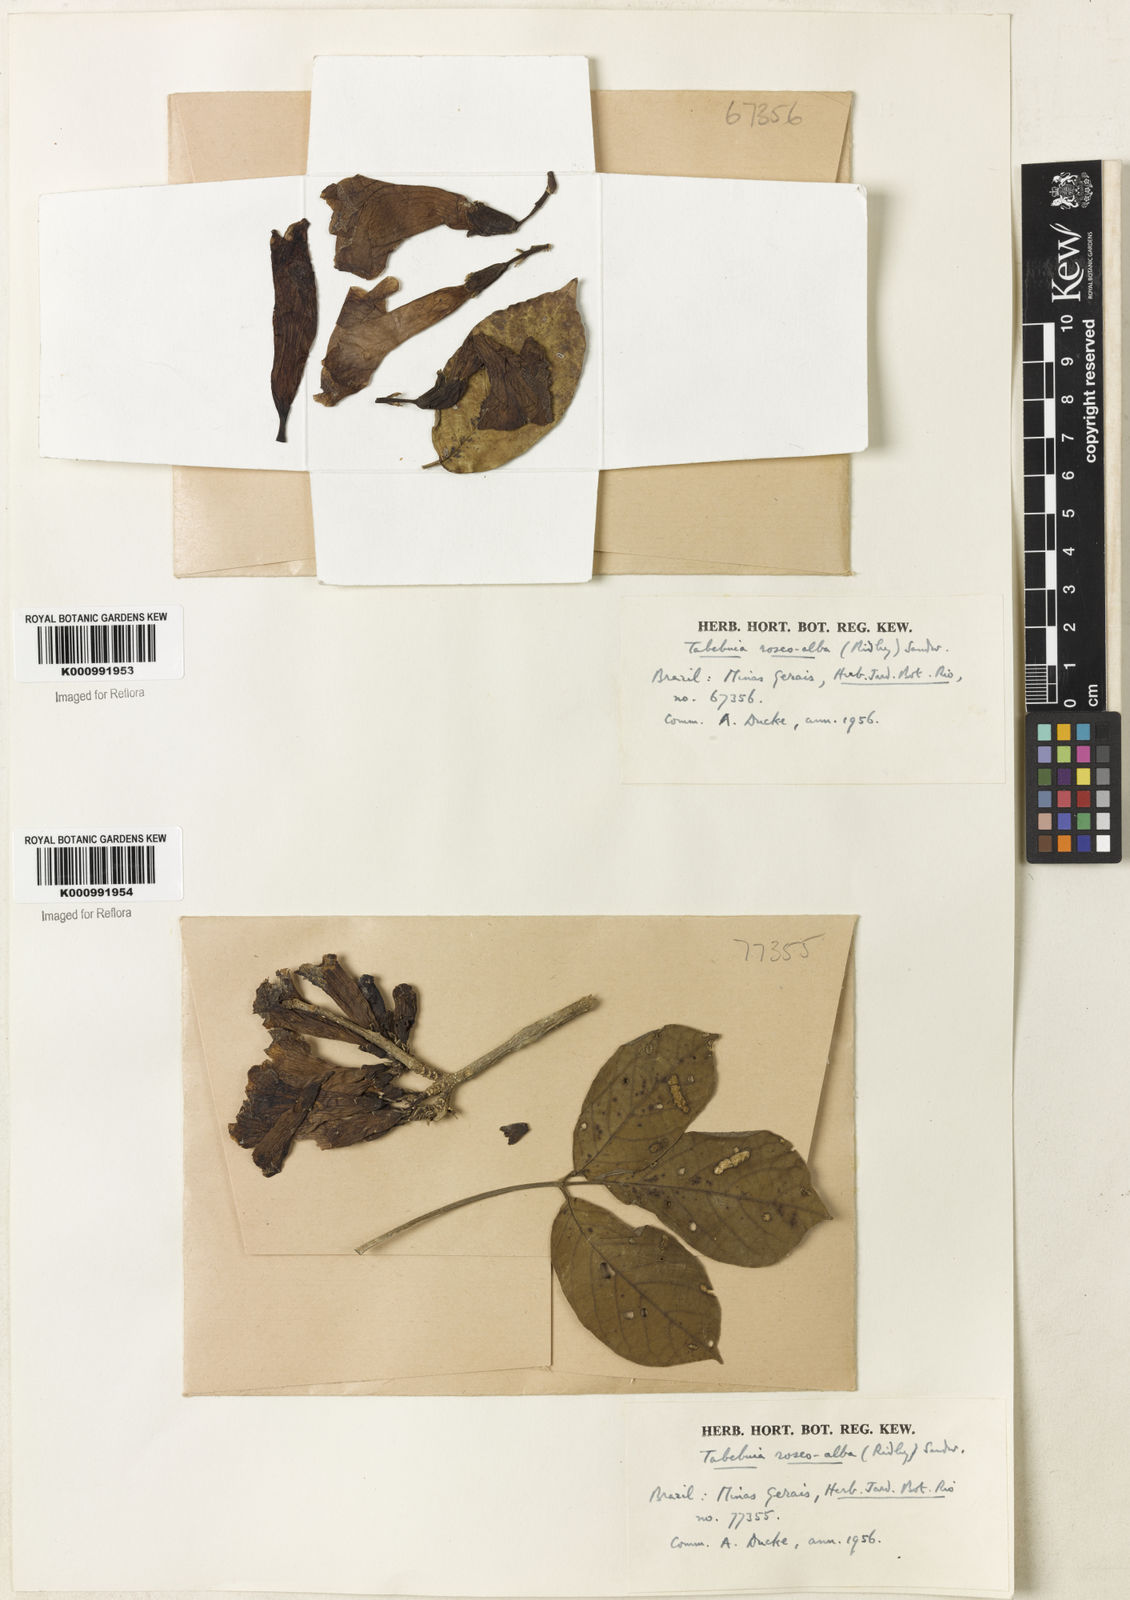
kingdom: Plantae
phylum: Tracheophyta
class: Magnoliopsida
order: Lamiales
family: Bignoniaceae
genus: Tabebuia
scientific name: Tabebuia roseoalba
